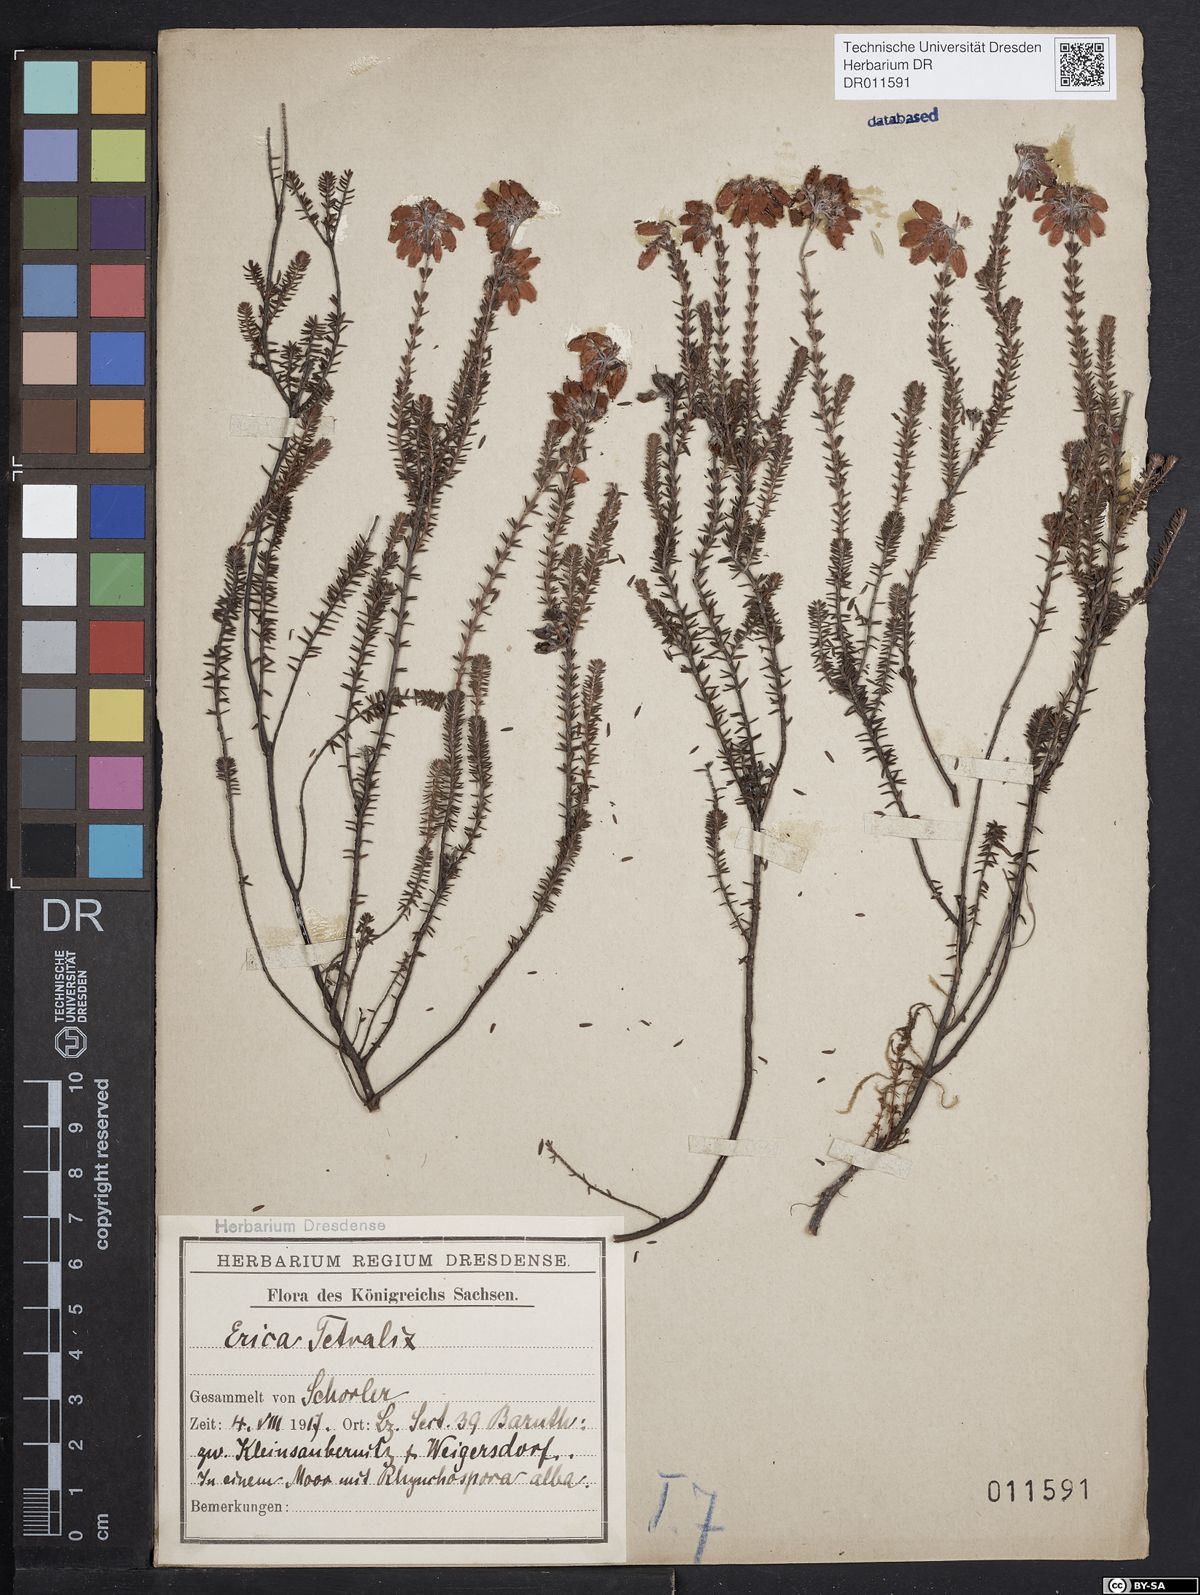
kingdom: Plantae
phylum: Tracheophyta
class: Magnoliopsida
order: Ericales
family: Ericaceae
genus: Erica
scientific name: Erica tetralix
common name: Cross-leaved heath
